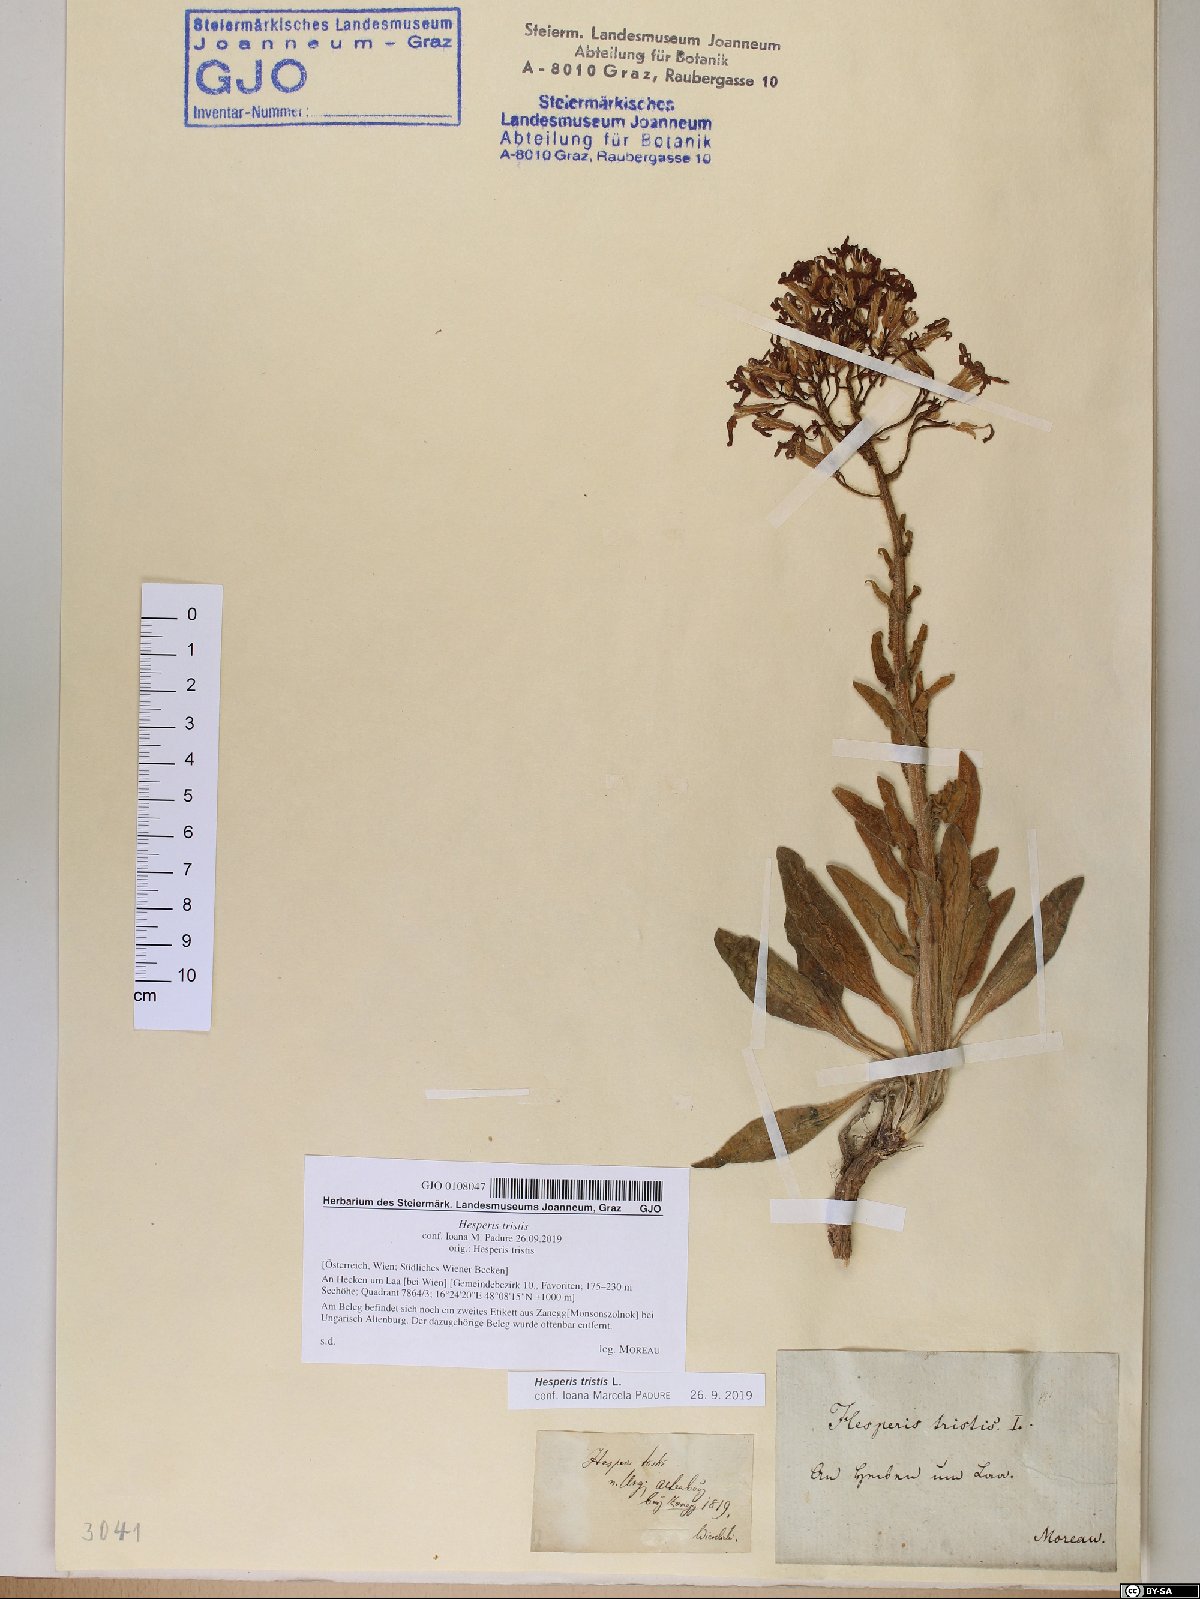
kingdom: Plantae
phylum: Tracheophyta
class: Magnoliopsida
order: Brassicales
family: Brassicaceae
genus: Hesperis
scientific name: Hesperis tristis
